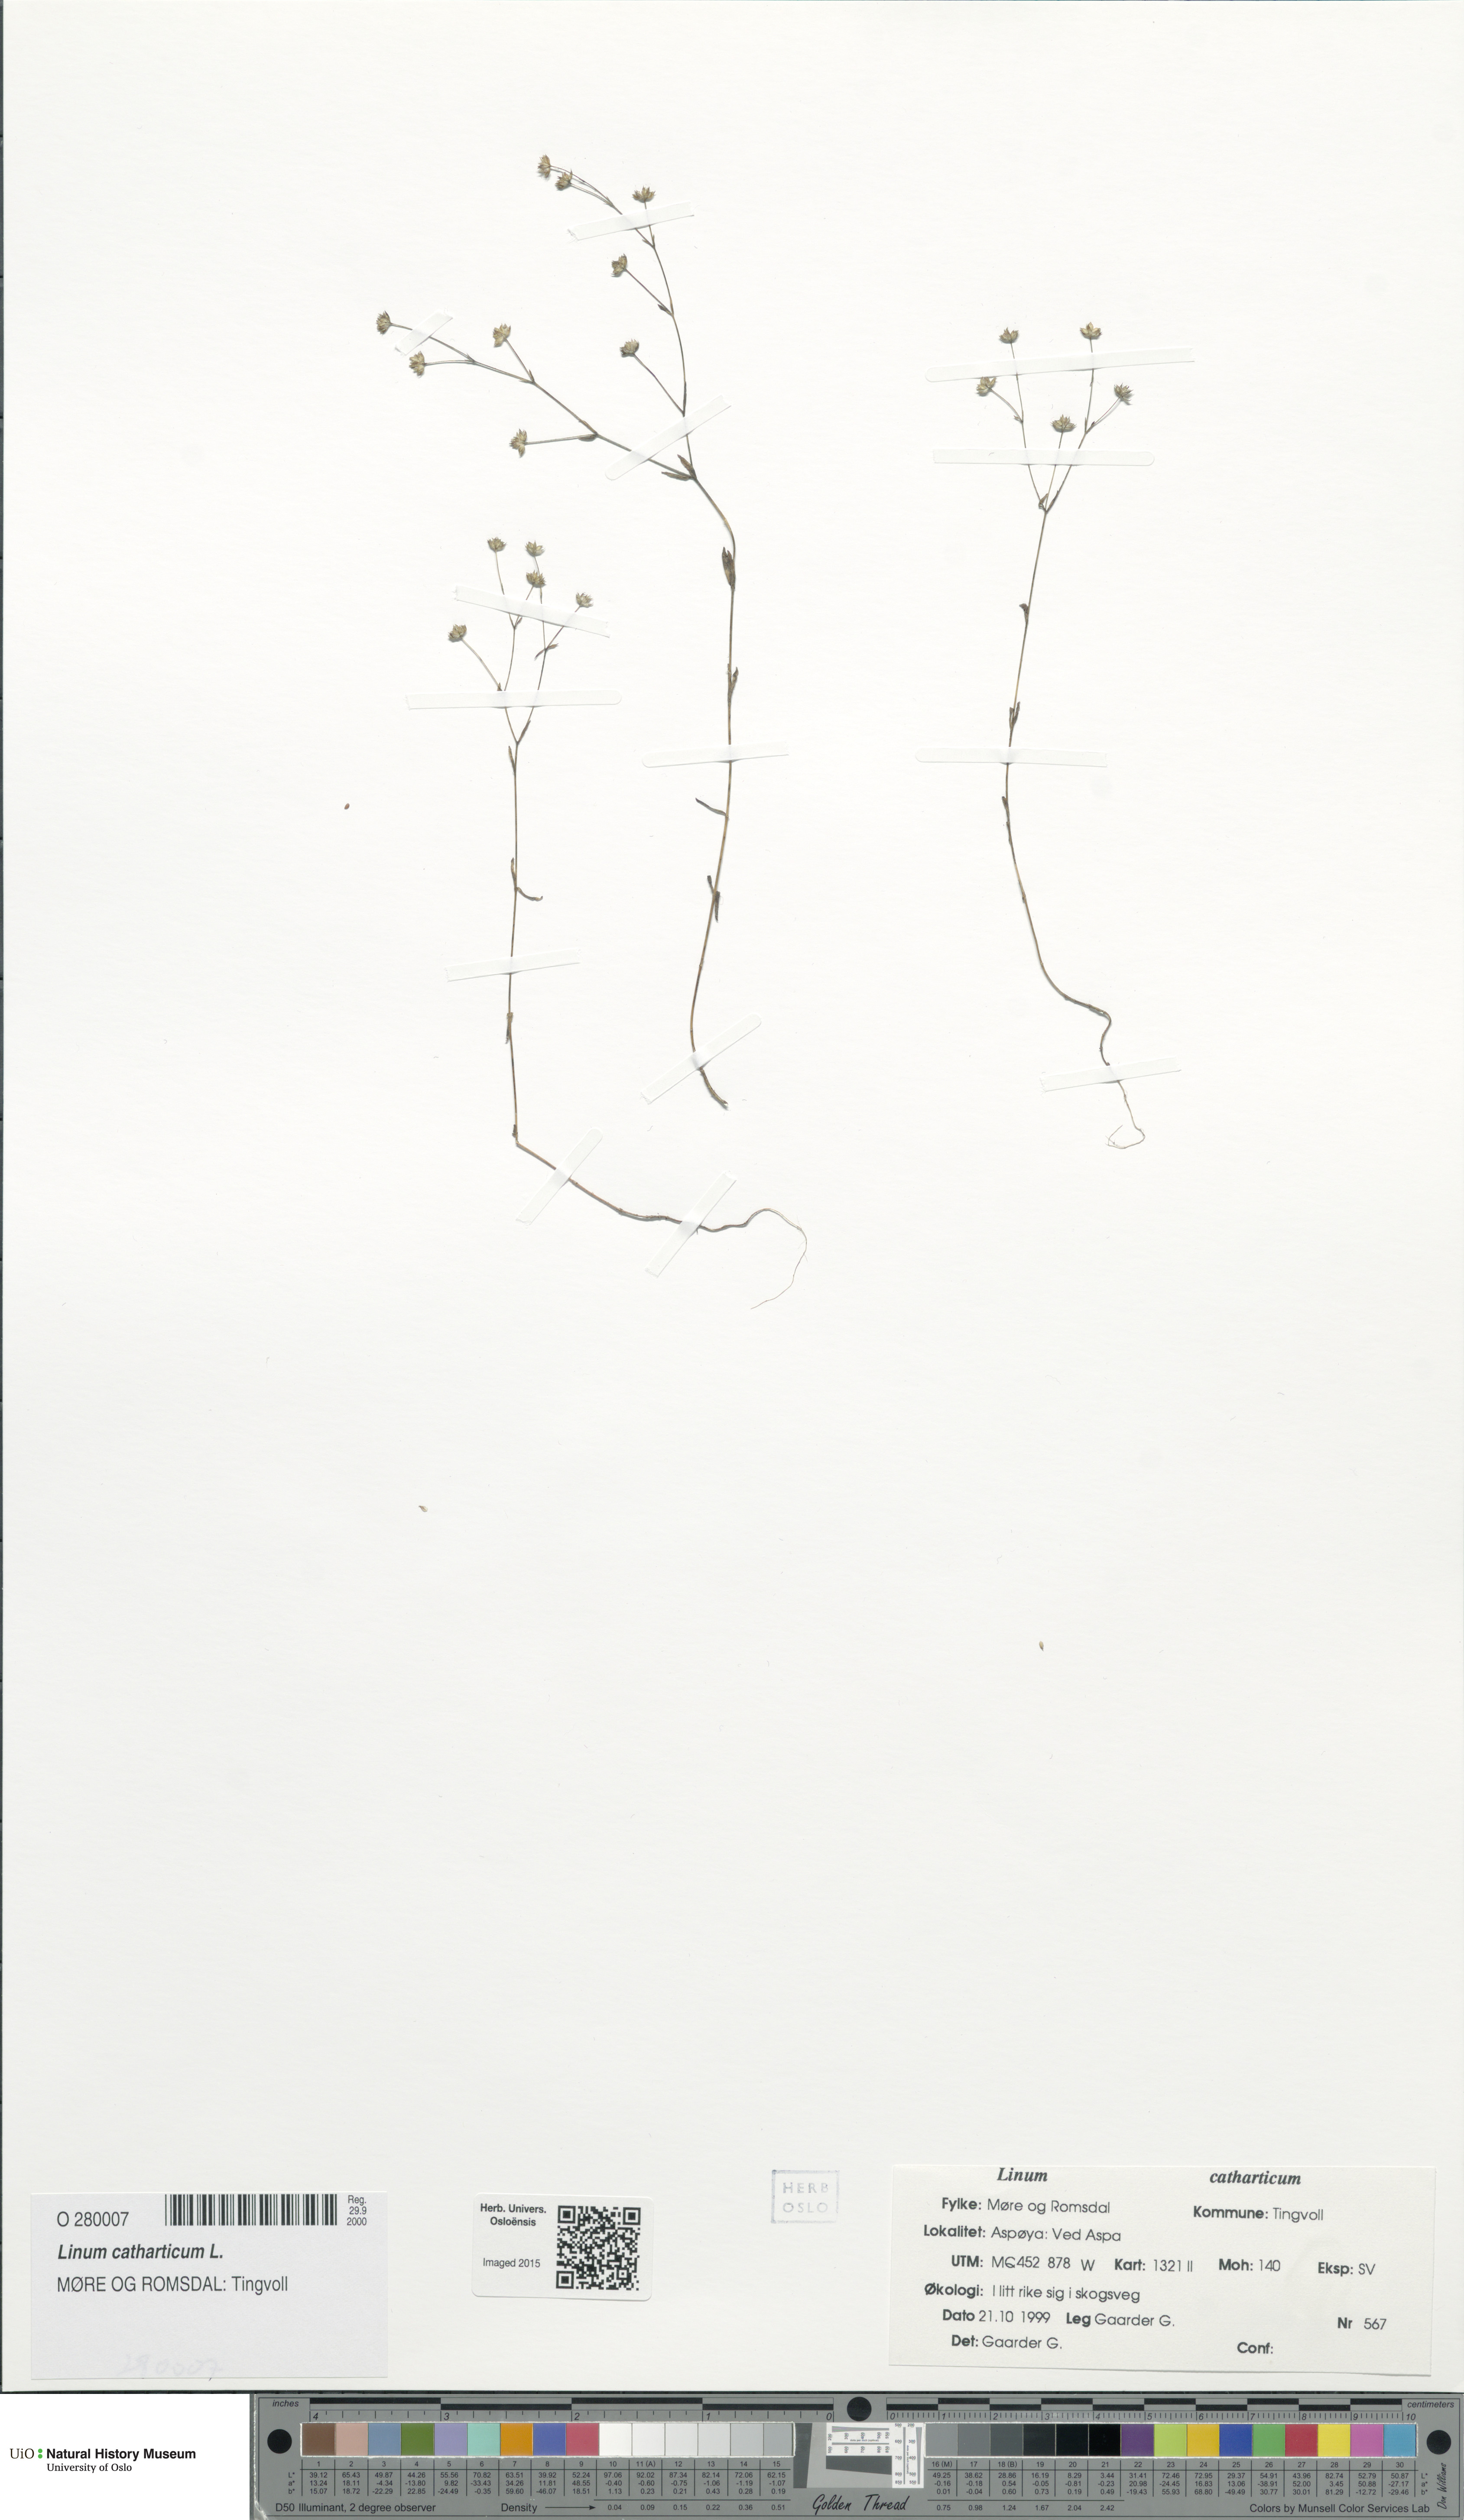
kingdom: Plantae
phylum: Tracheophyta
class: Magnoliopsida
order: Malpighiales
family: Linaceae
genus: Linum
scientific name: Linum catharticum
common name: Fairy flax
